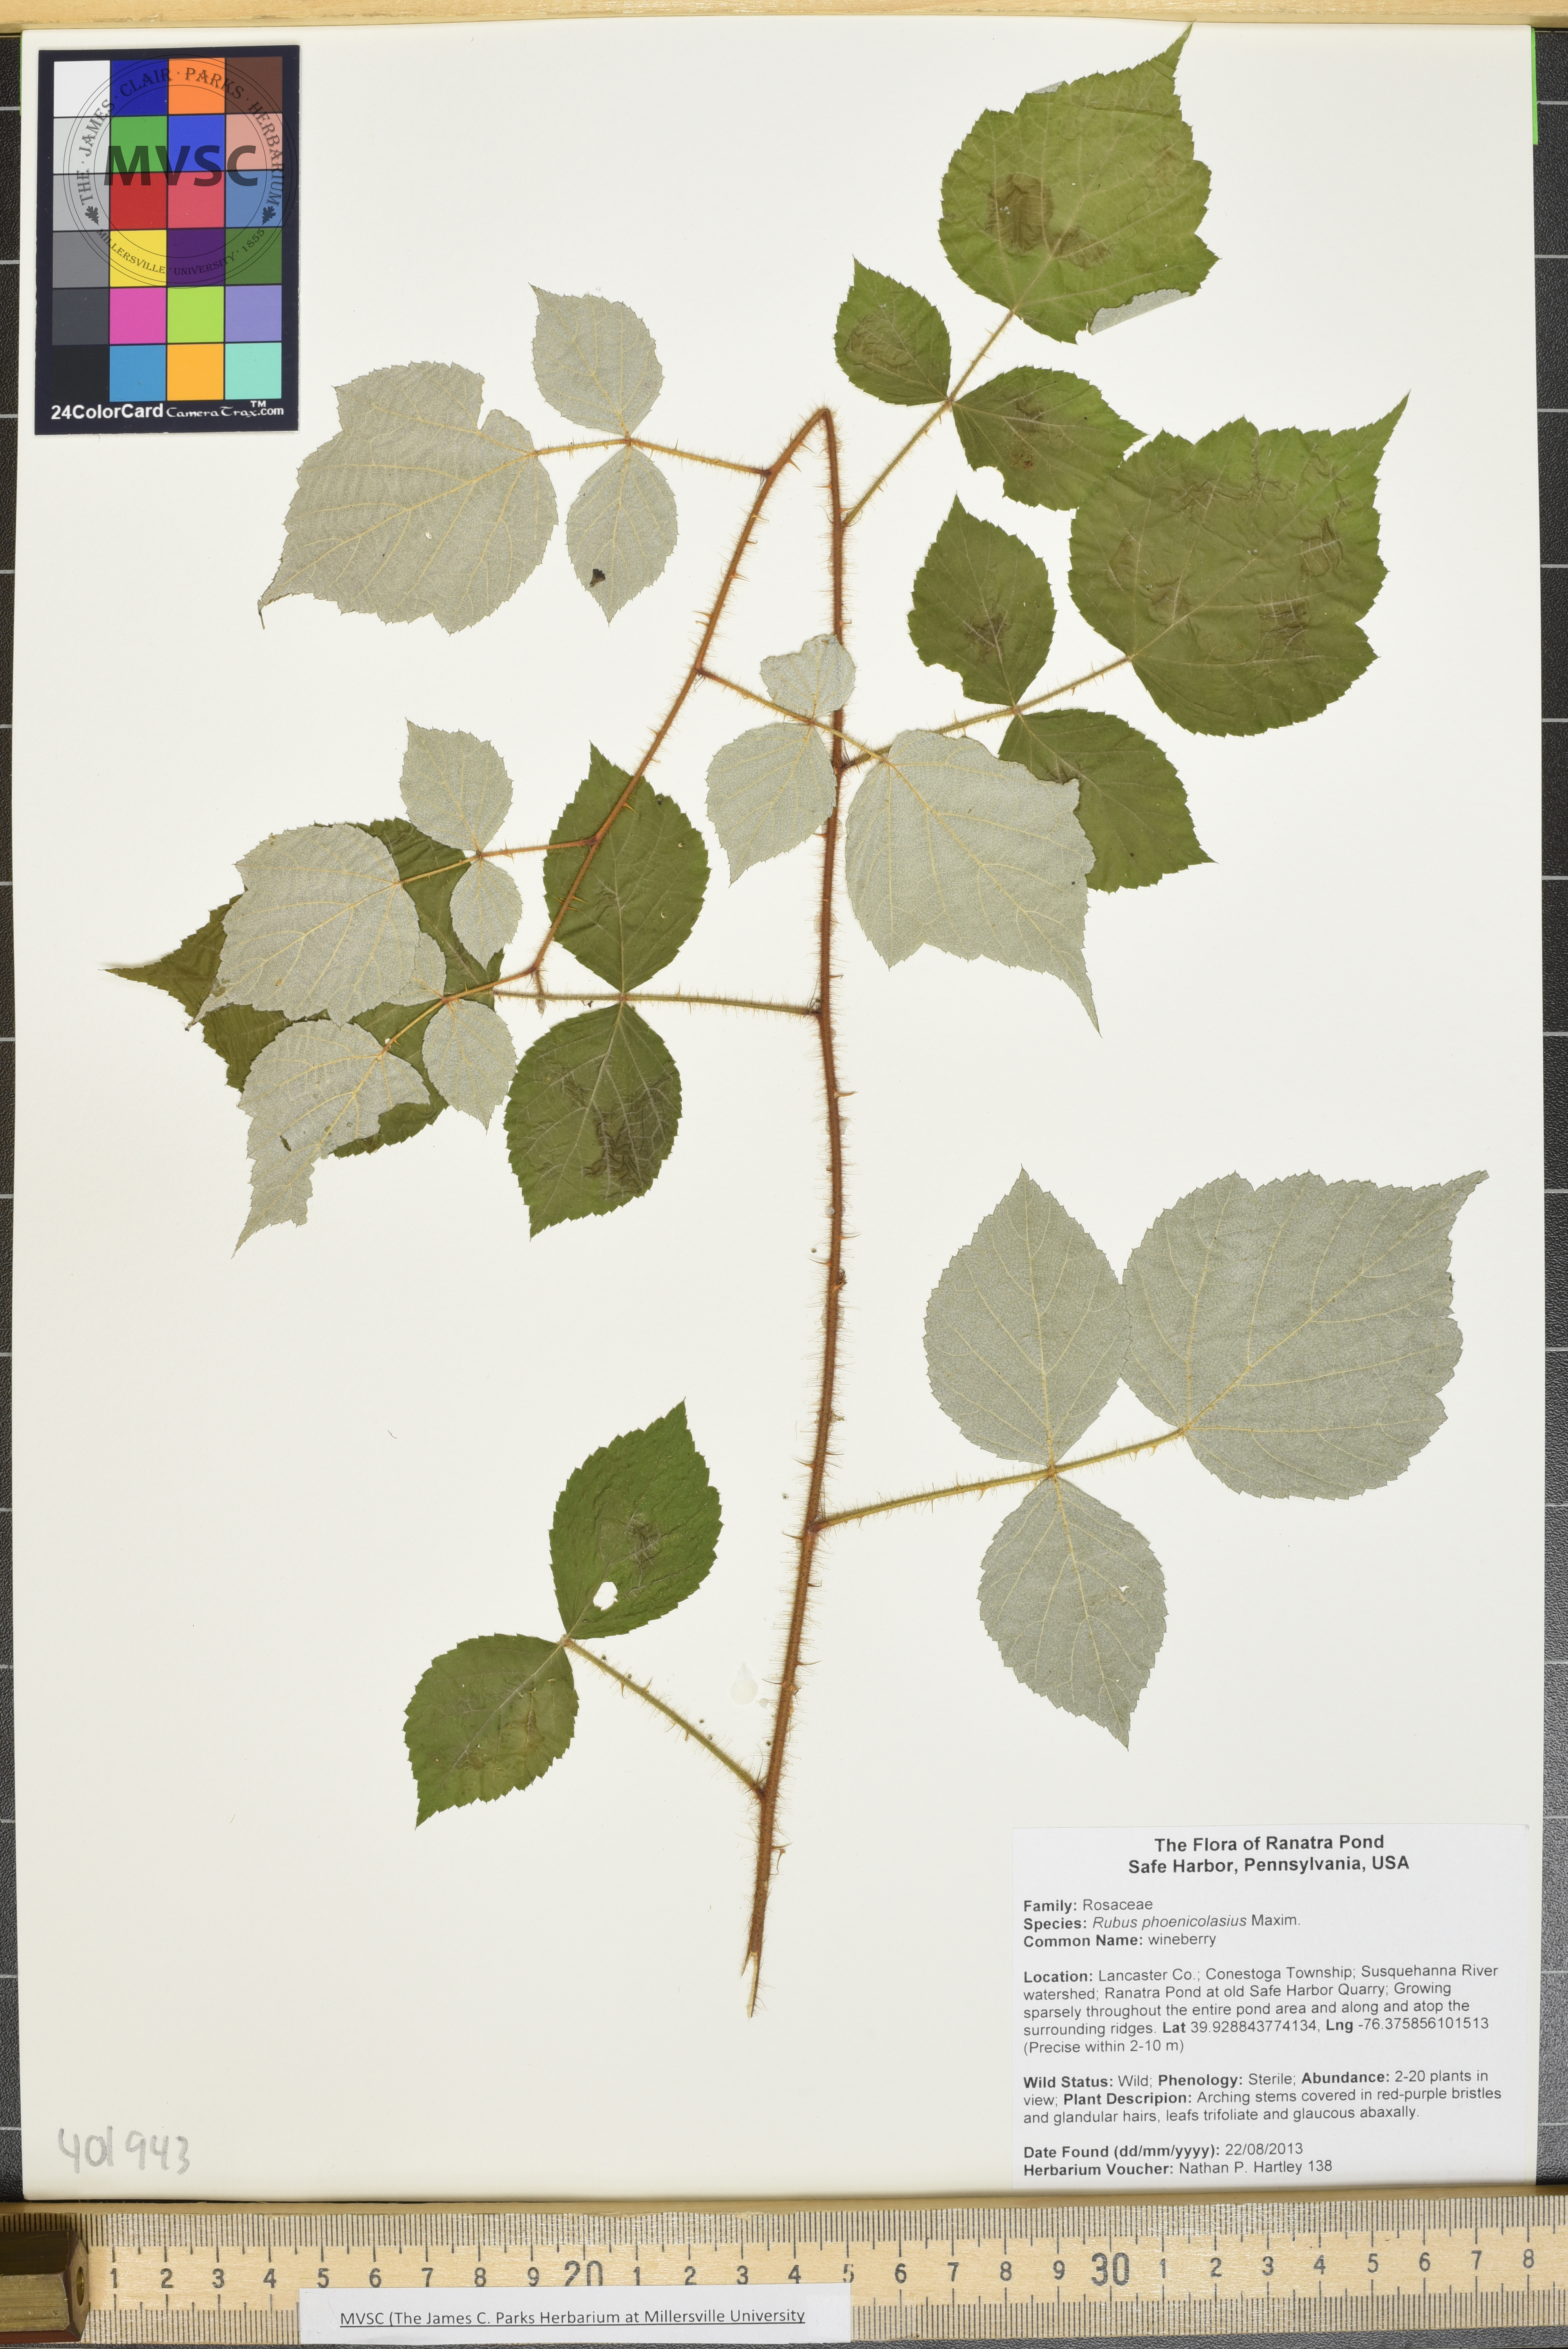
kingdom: Plantae
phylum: Tracheophyta
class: Magnoliopsida
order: Rosales
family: Rosaceae
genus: Rubus
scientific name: Rubus phoenicolasius
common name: Wineberry
